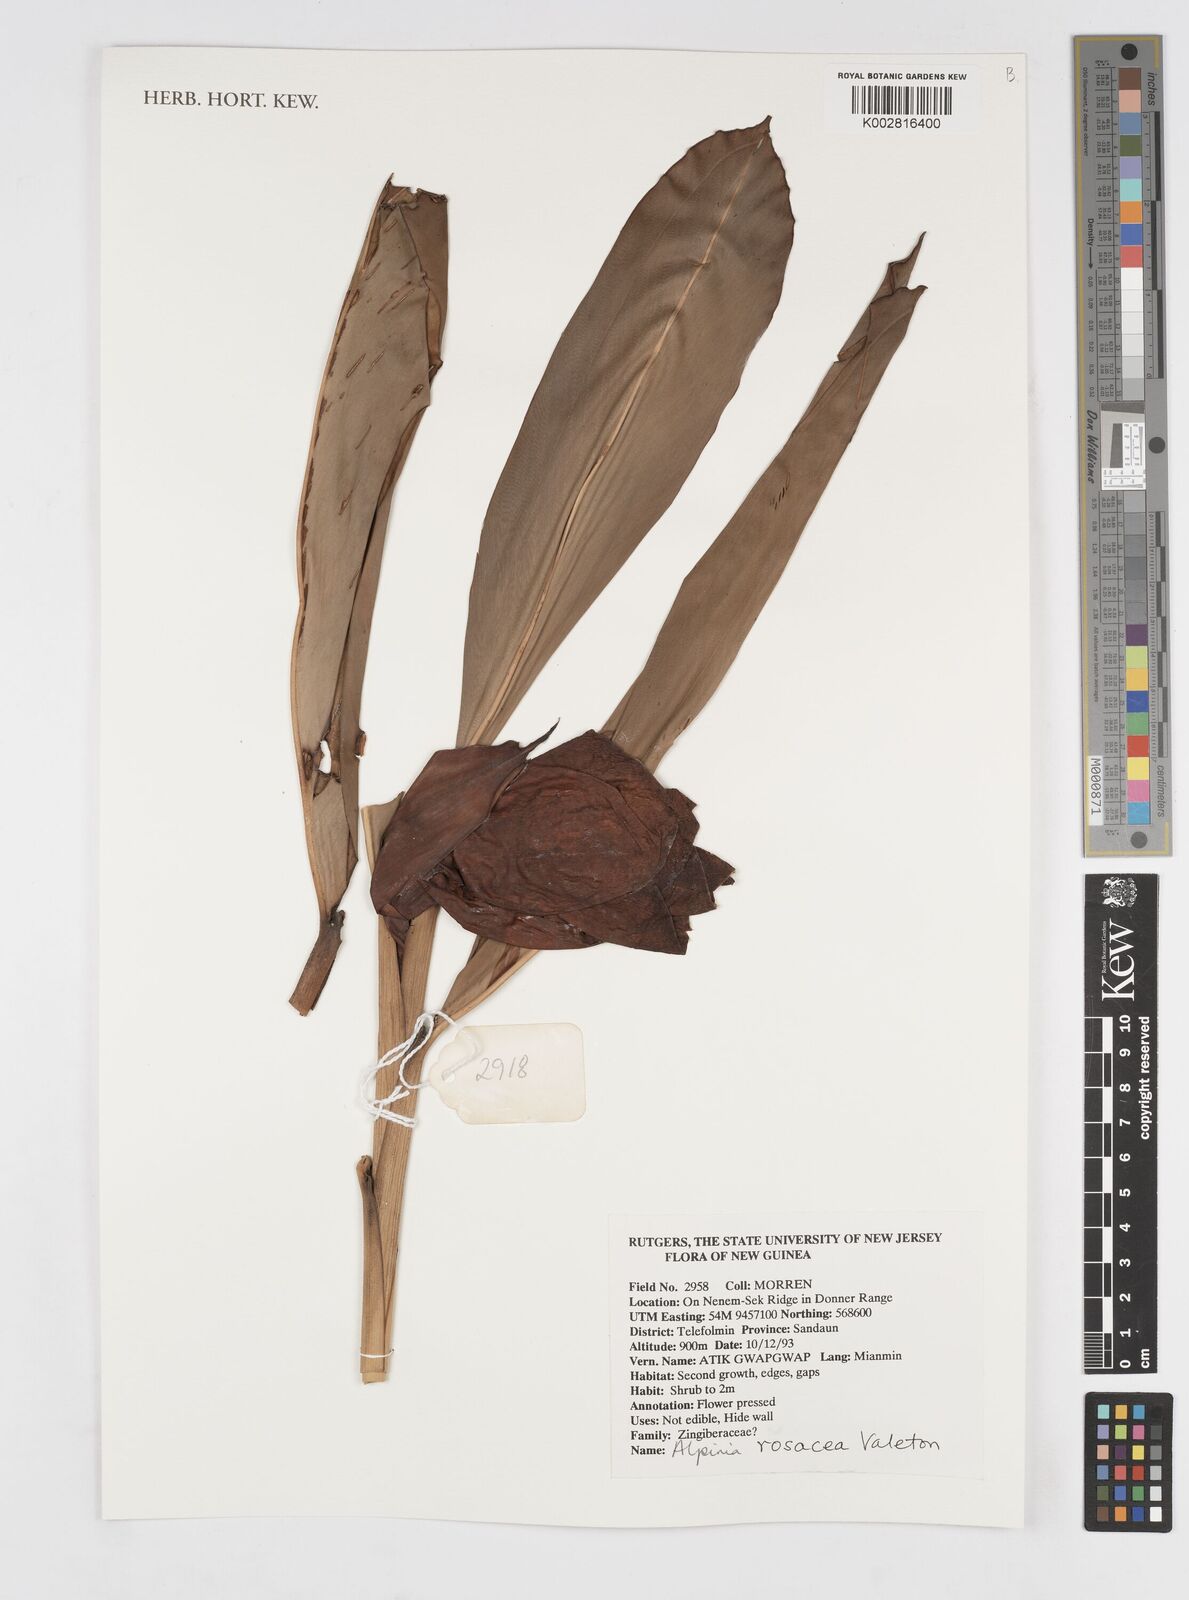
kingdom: Plantae
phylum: Tracheophyta
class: Liliopsida
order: Zingiberales
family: Zingiberaceae
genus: Alpinia
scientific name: Alpinia rosacea
